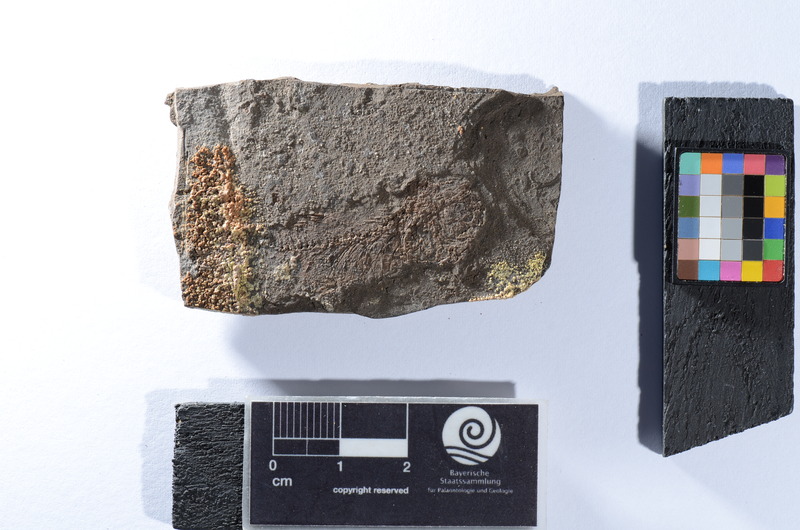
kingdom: Animalia
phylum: Chordata
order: Cypriniformes
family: Cyprinidae
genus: Palaeorutilus
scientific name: Palaeorutilus Cyprinus papyraceus
